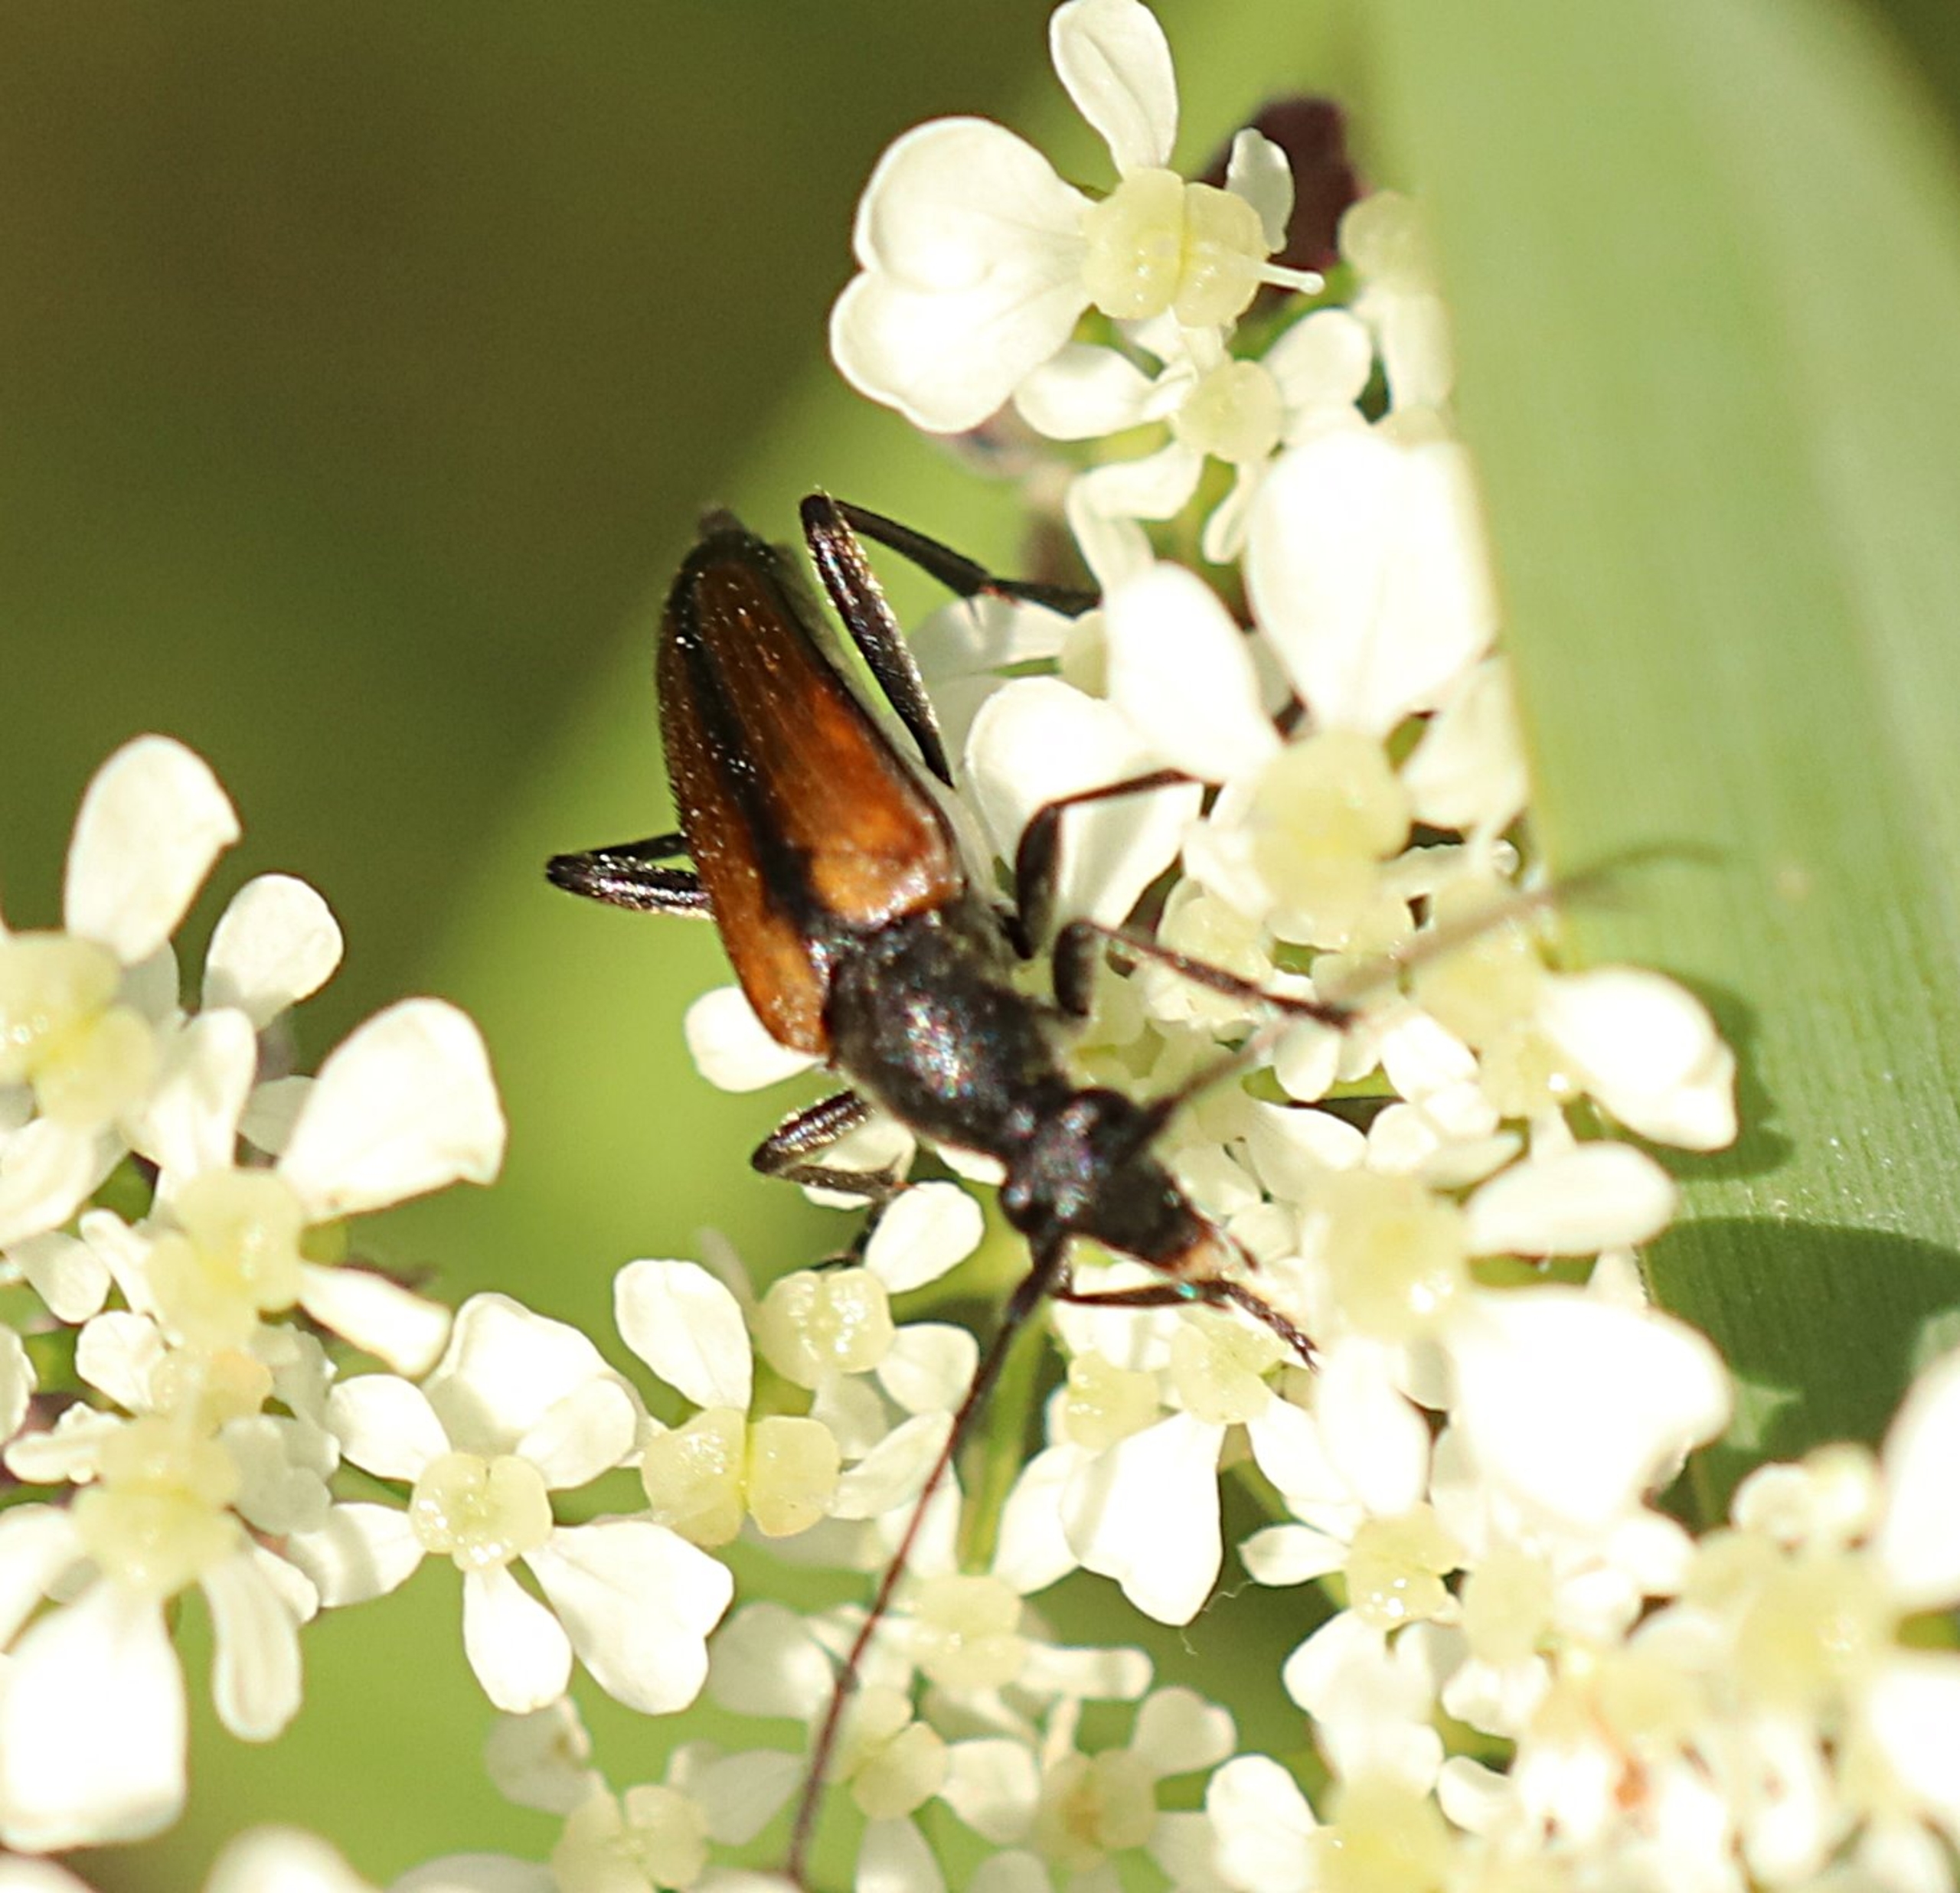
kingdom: Animalia
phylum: Arthropoda
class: Insecta
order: Coleoptera
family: Cerambycidae
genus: Stenurella
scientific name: Stenurella melanura
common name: Sortsømmet blomsterbuk
